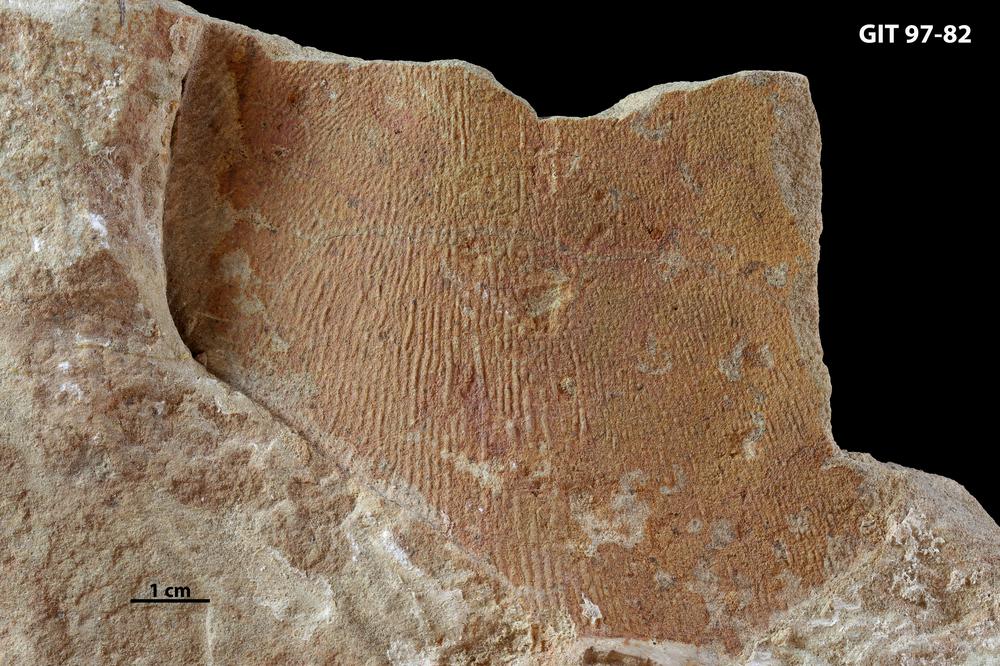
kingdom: Animalia
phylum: Chordata
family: Holonematidae
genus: Holonema
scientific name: Holonema
